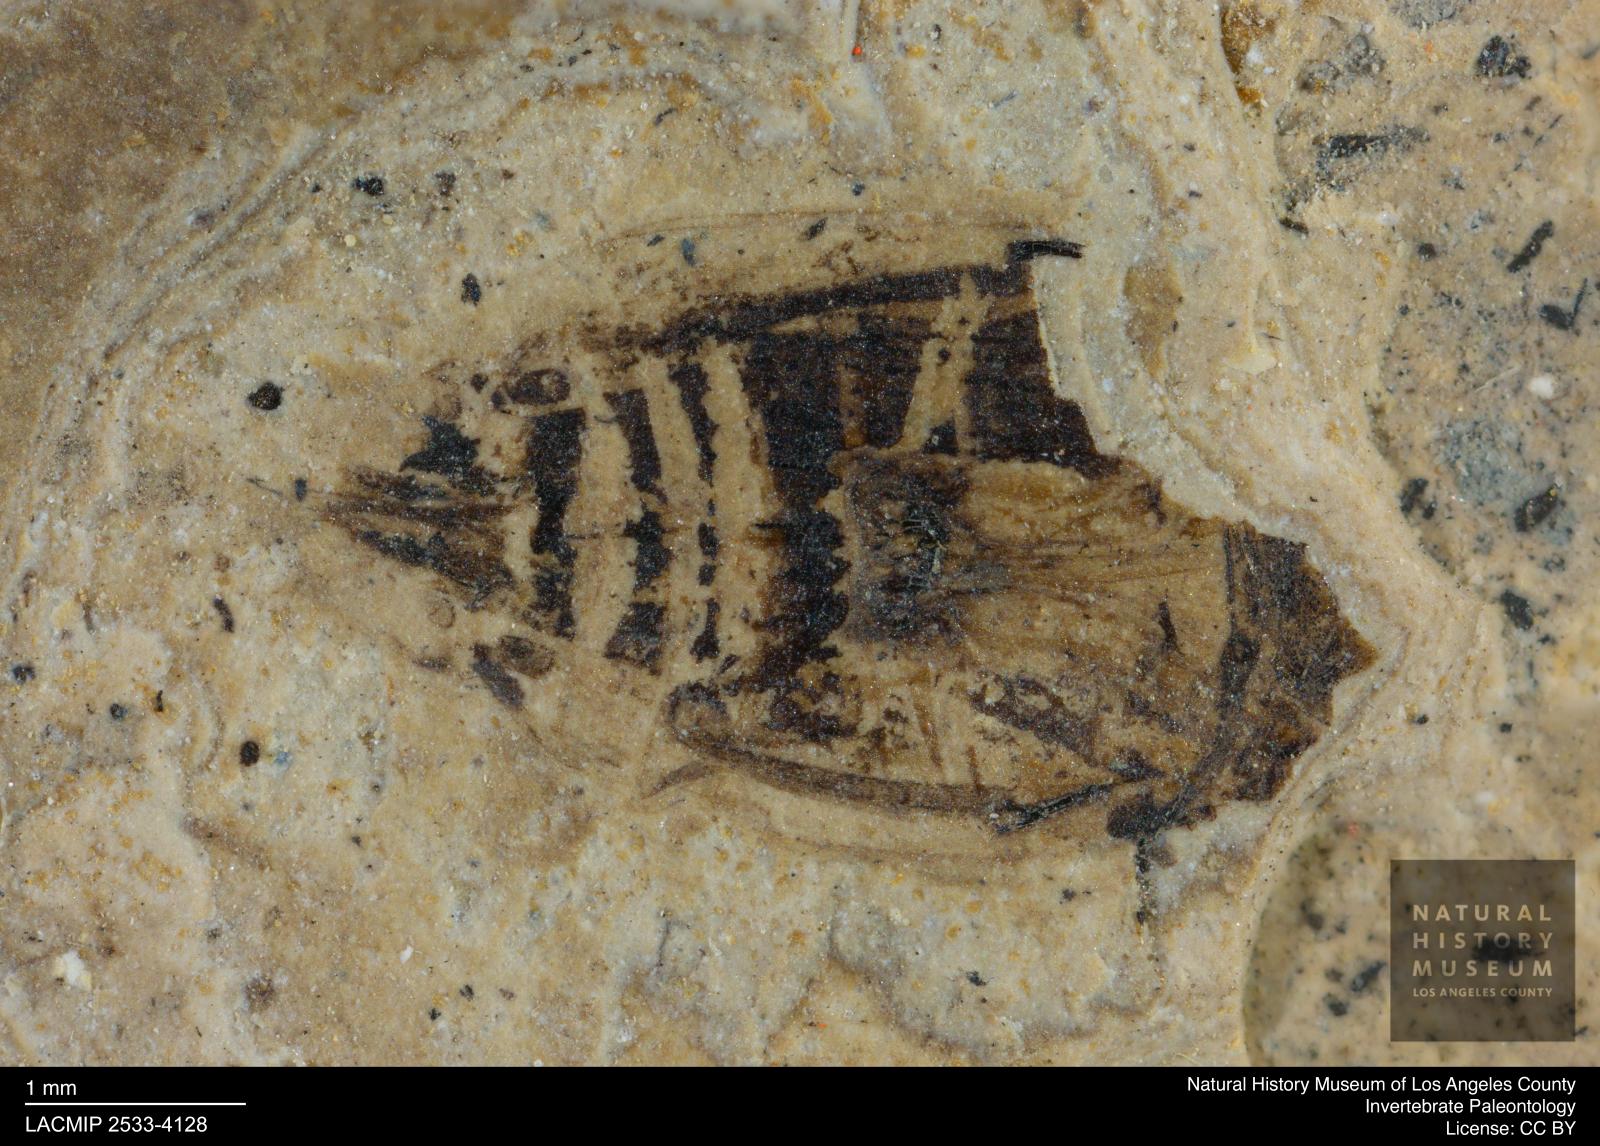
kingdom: Animalia
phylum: Arthropoda
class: Insecta
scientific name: Insecta
